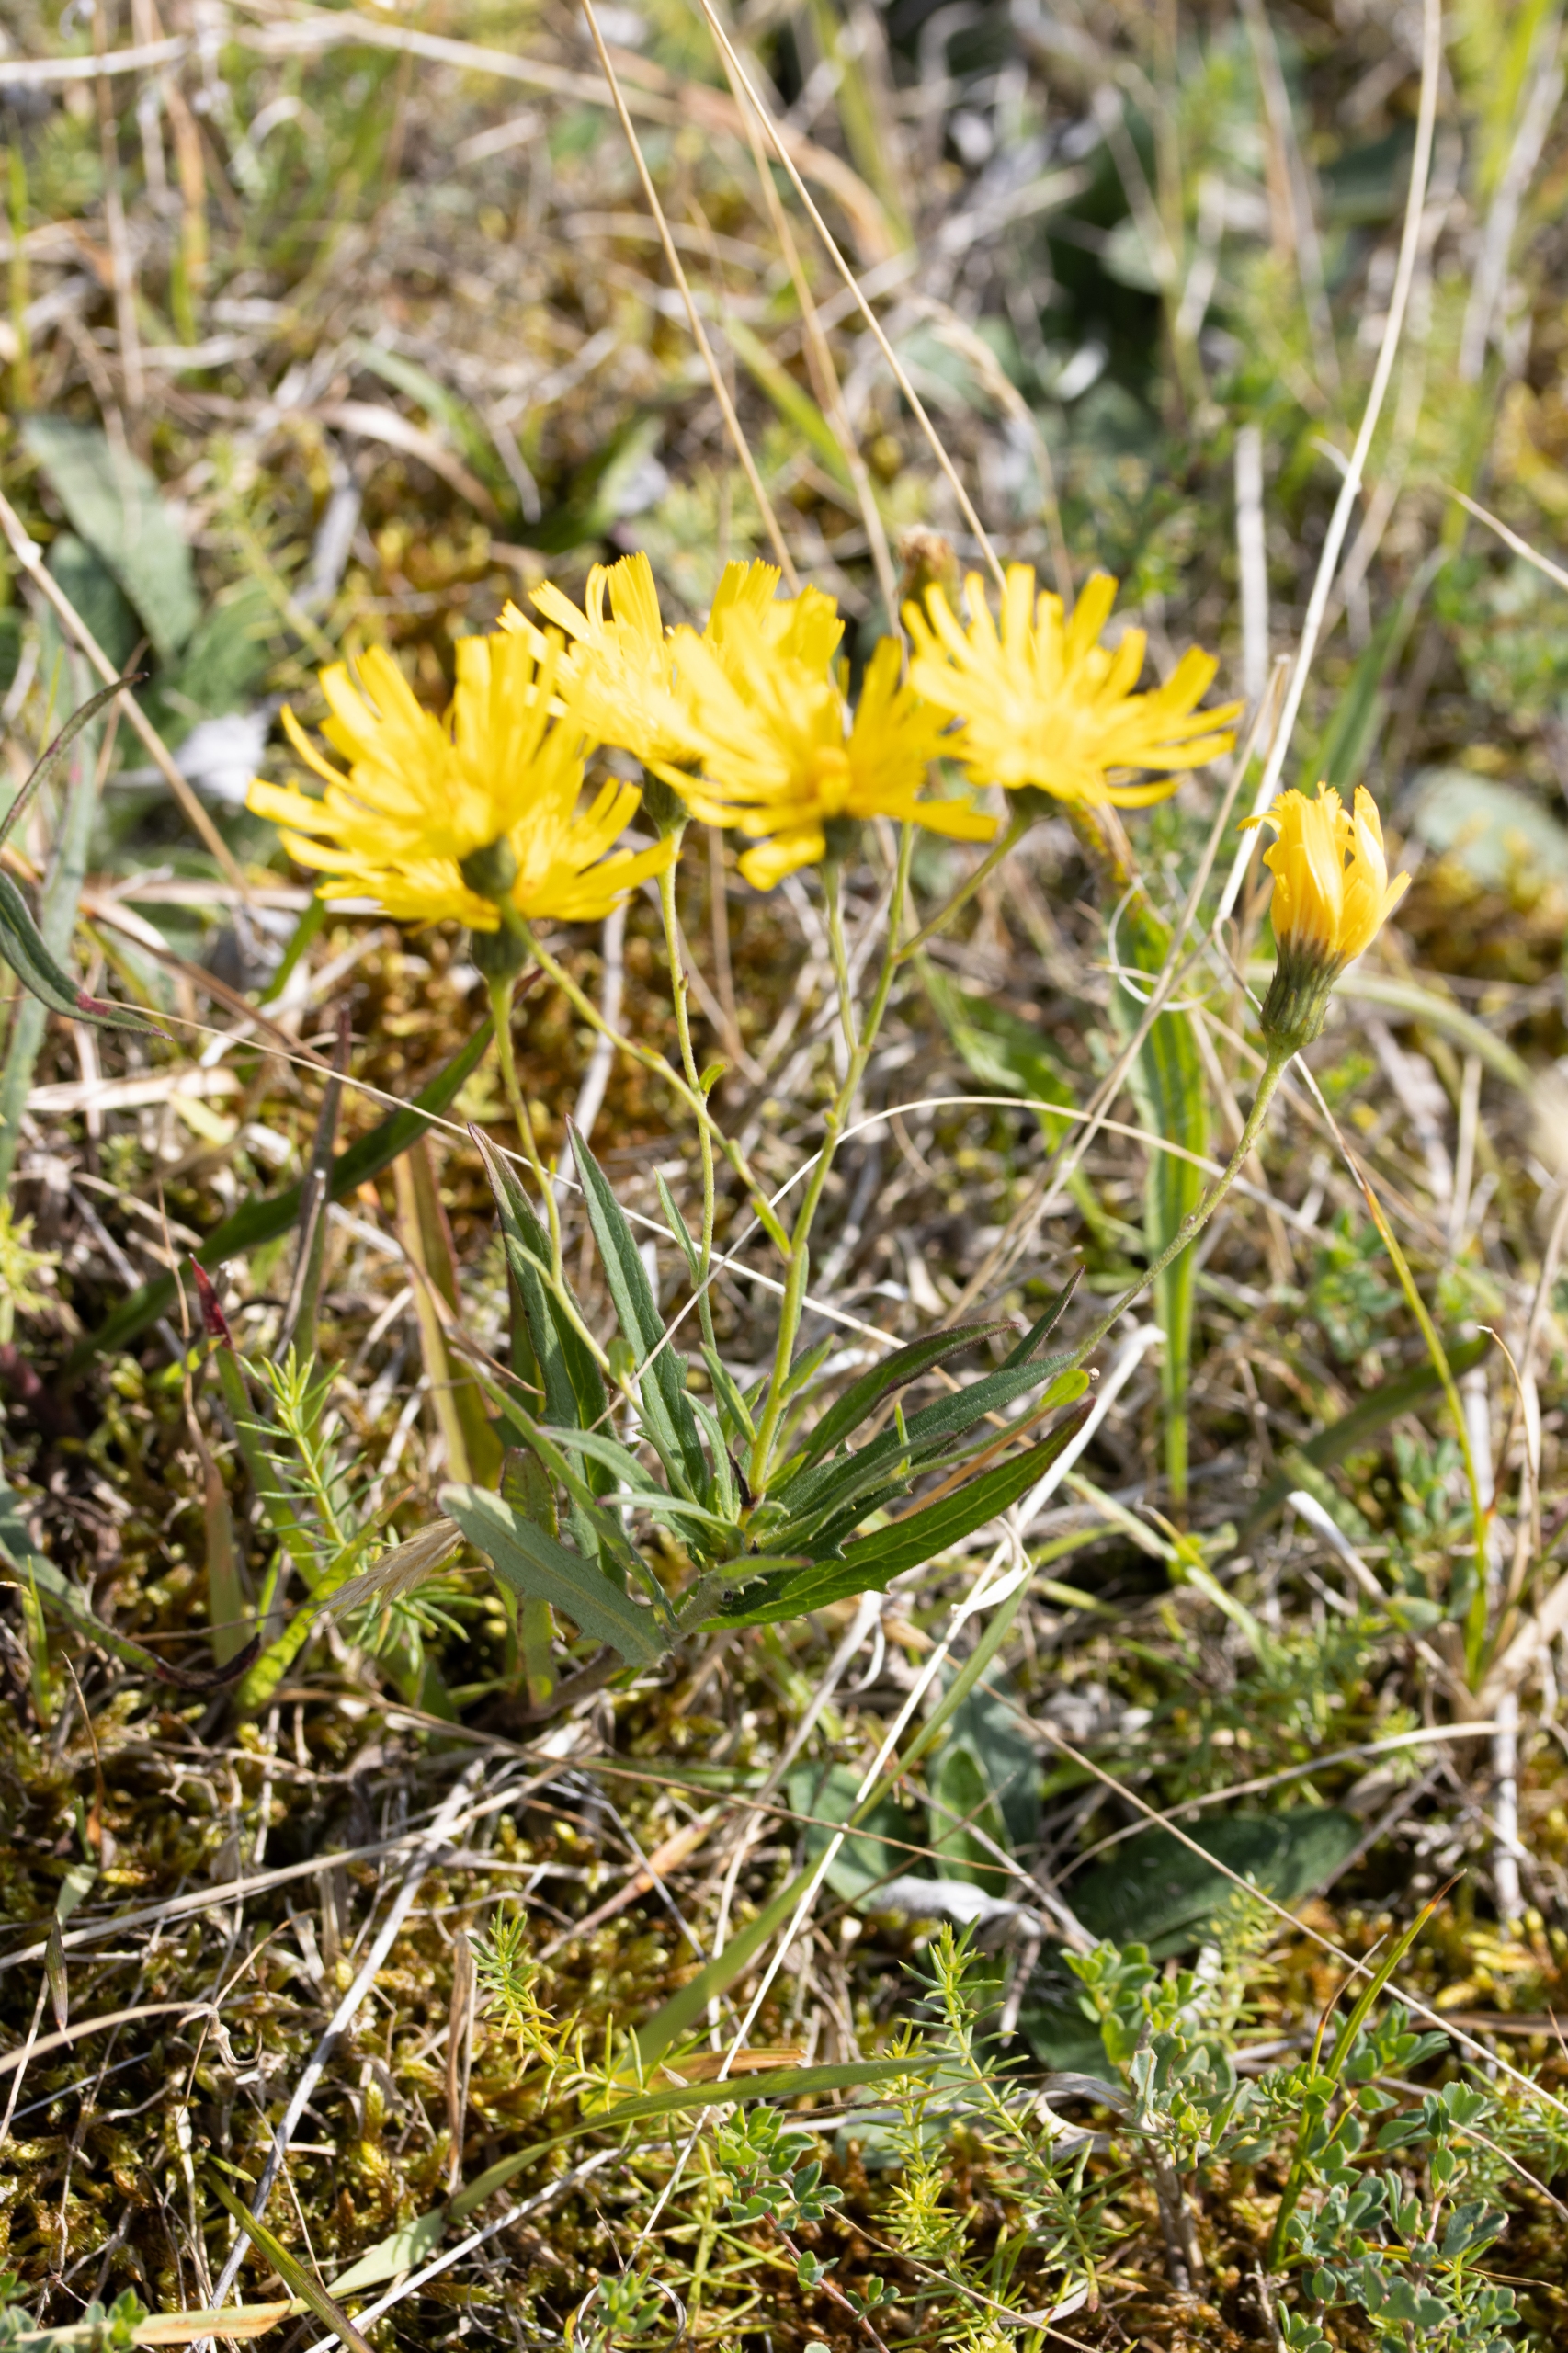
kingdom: Plantae
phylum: Tracheophyta
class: Magnoliopsida
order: Asterales
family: Asteraceae
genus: Hieracium
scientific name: Hieracium umbellatum
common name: Smalbladet høgeurt
